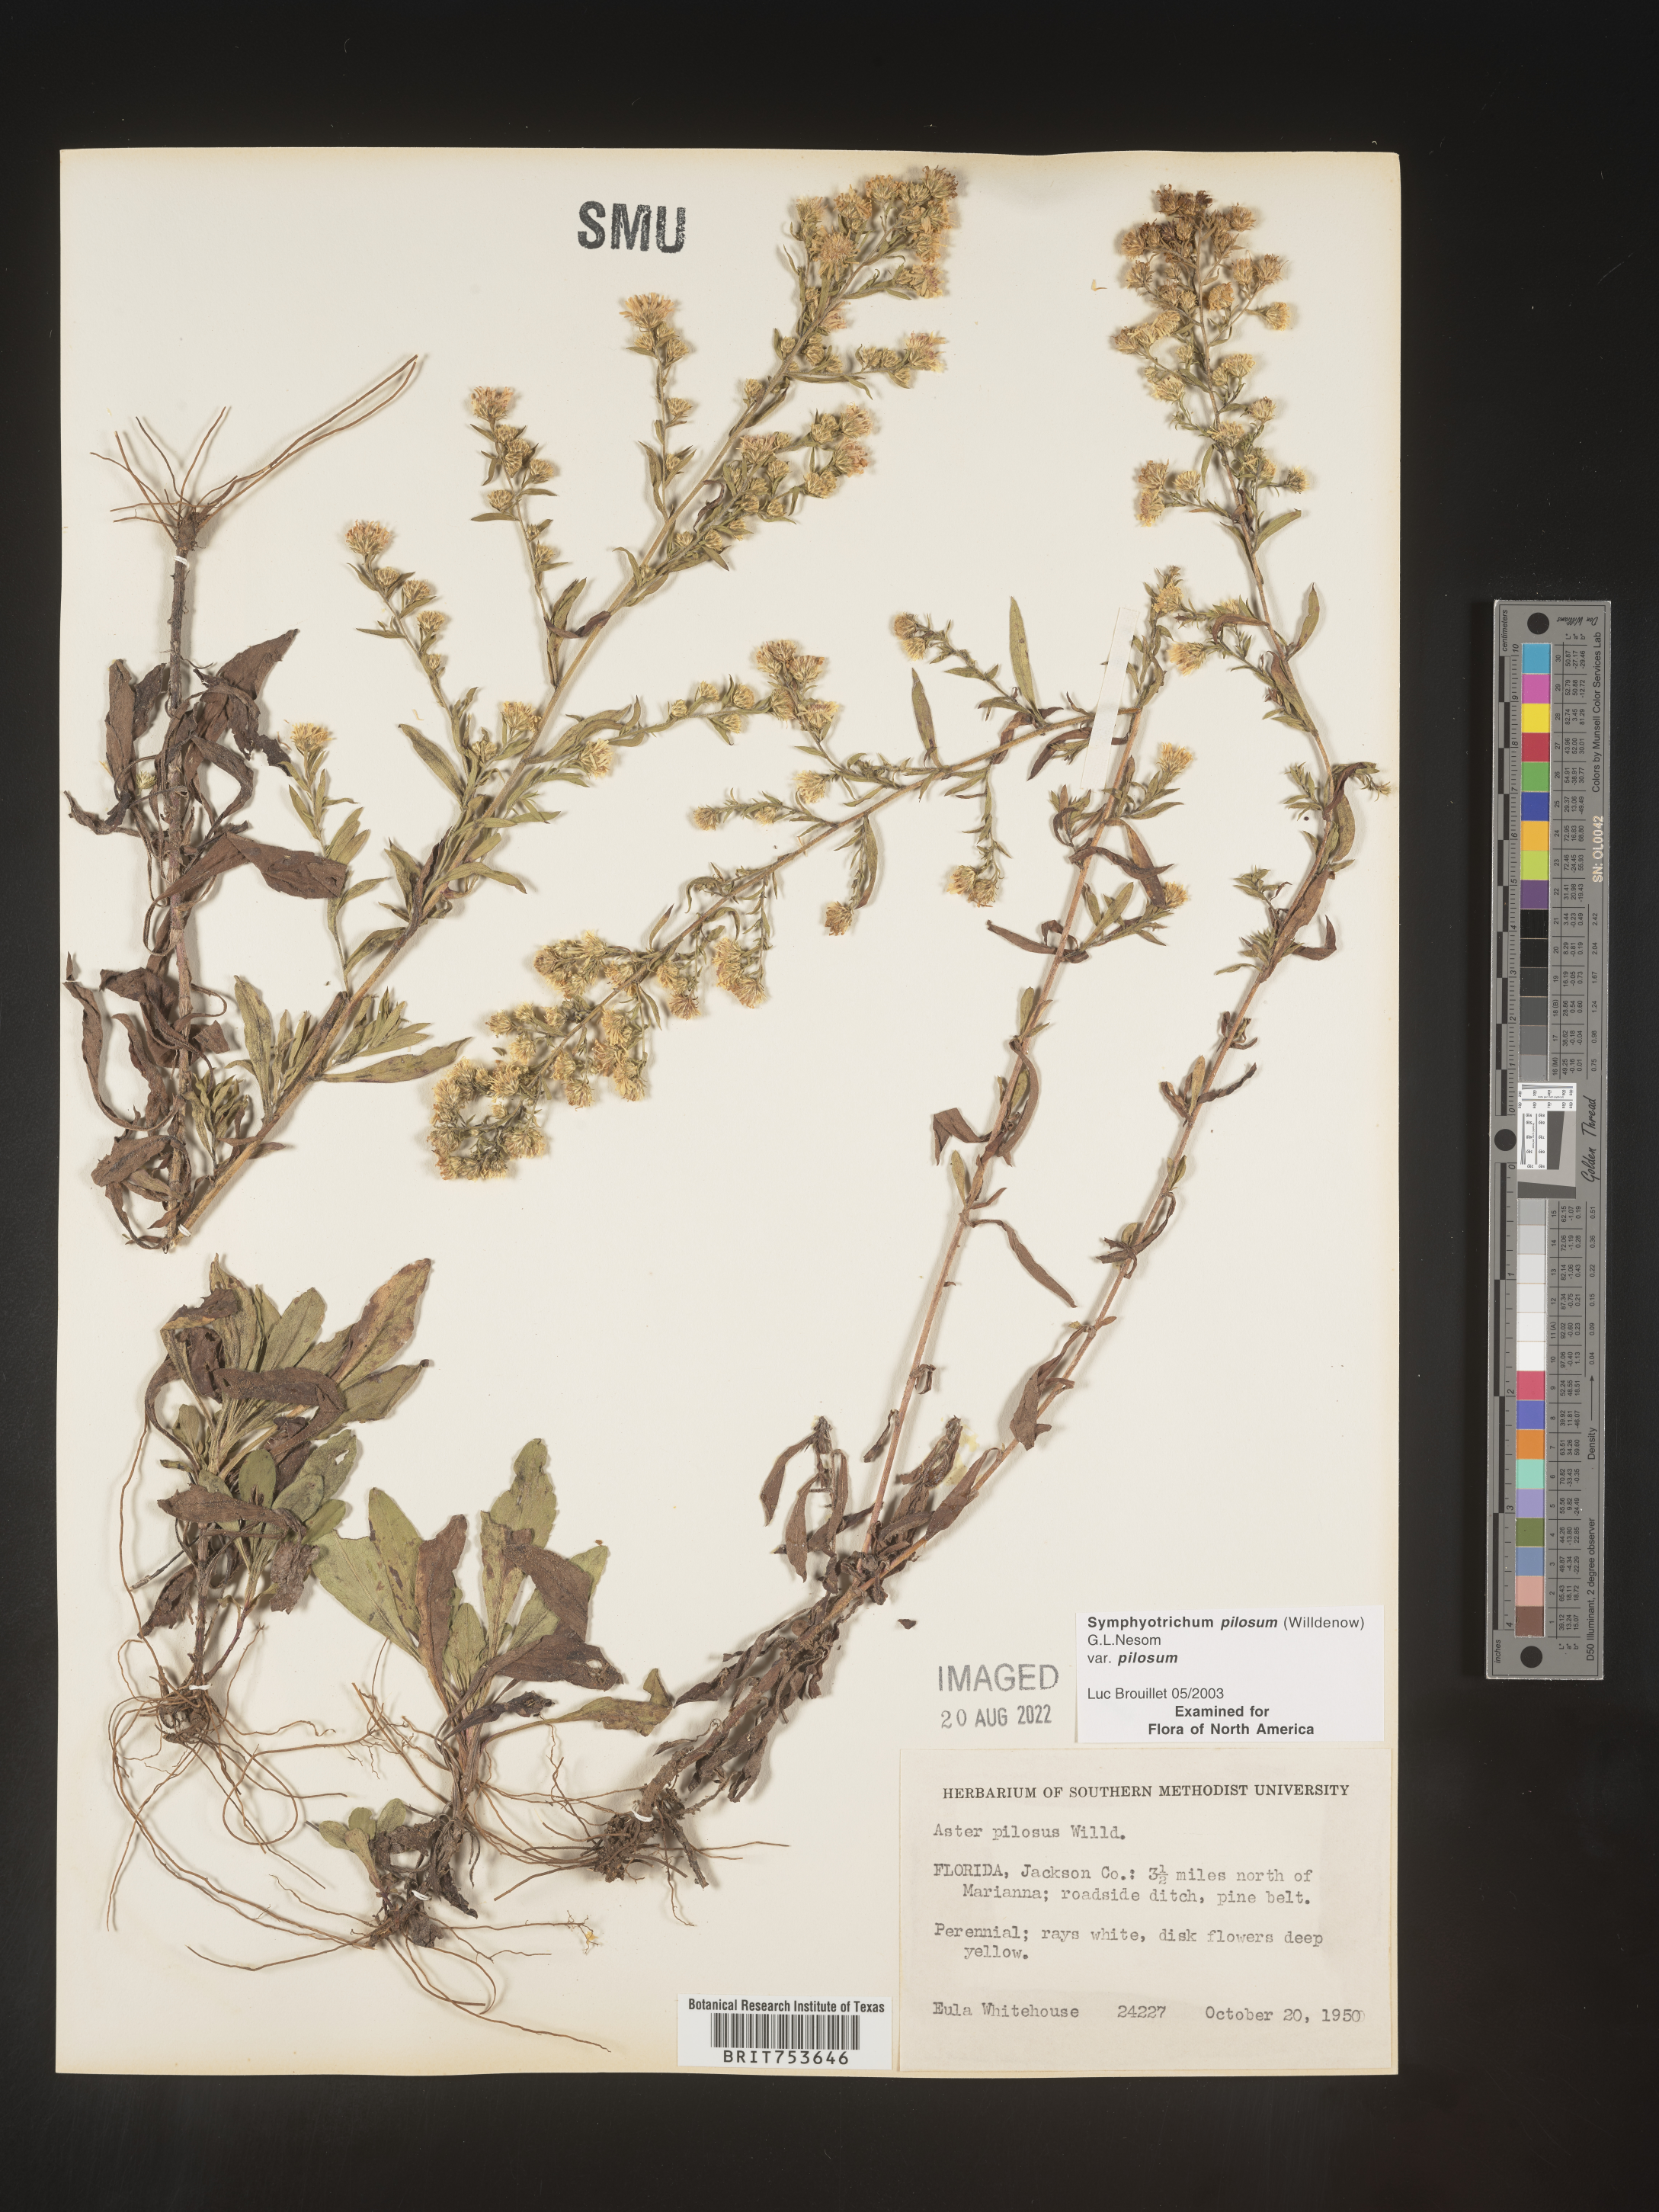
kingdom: Plantae
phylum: Tracheophyta
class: Magnoliopsida
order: Asterales
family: Asteraceae
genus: Symphyotrichum
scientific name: Symphyotrichum pilosum
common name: Awl aster
